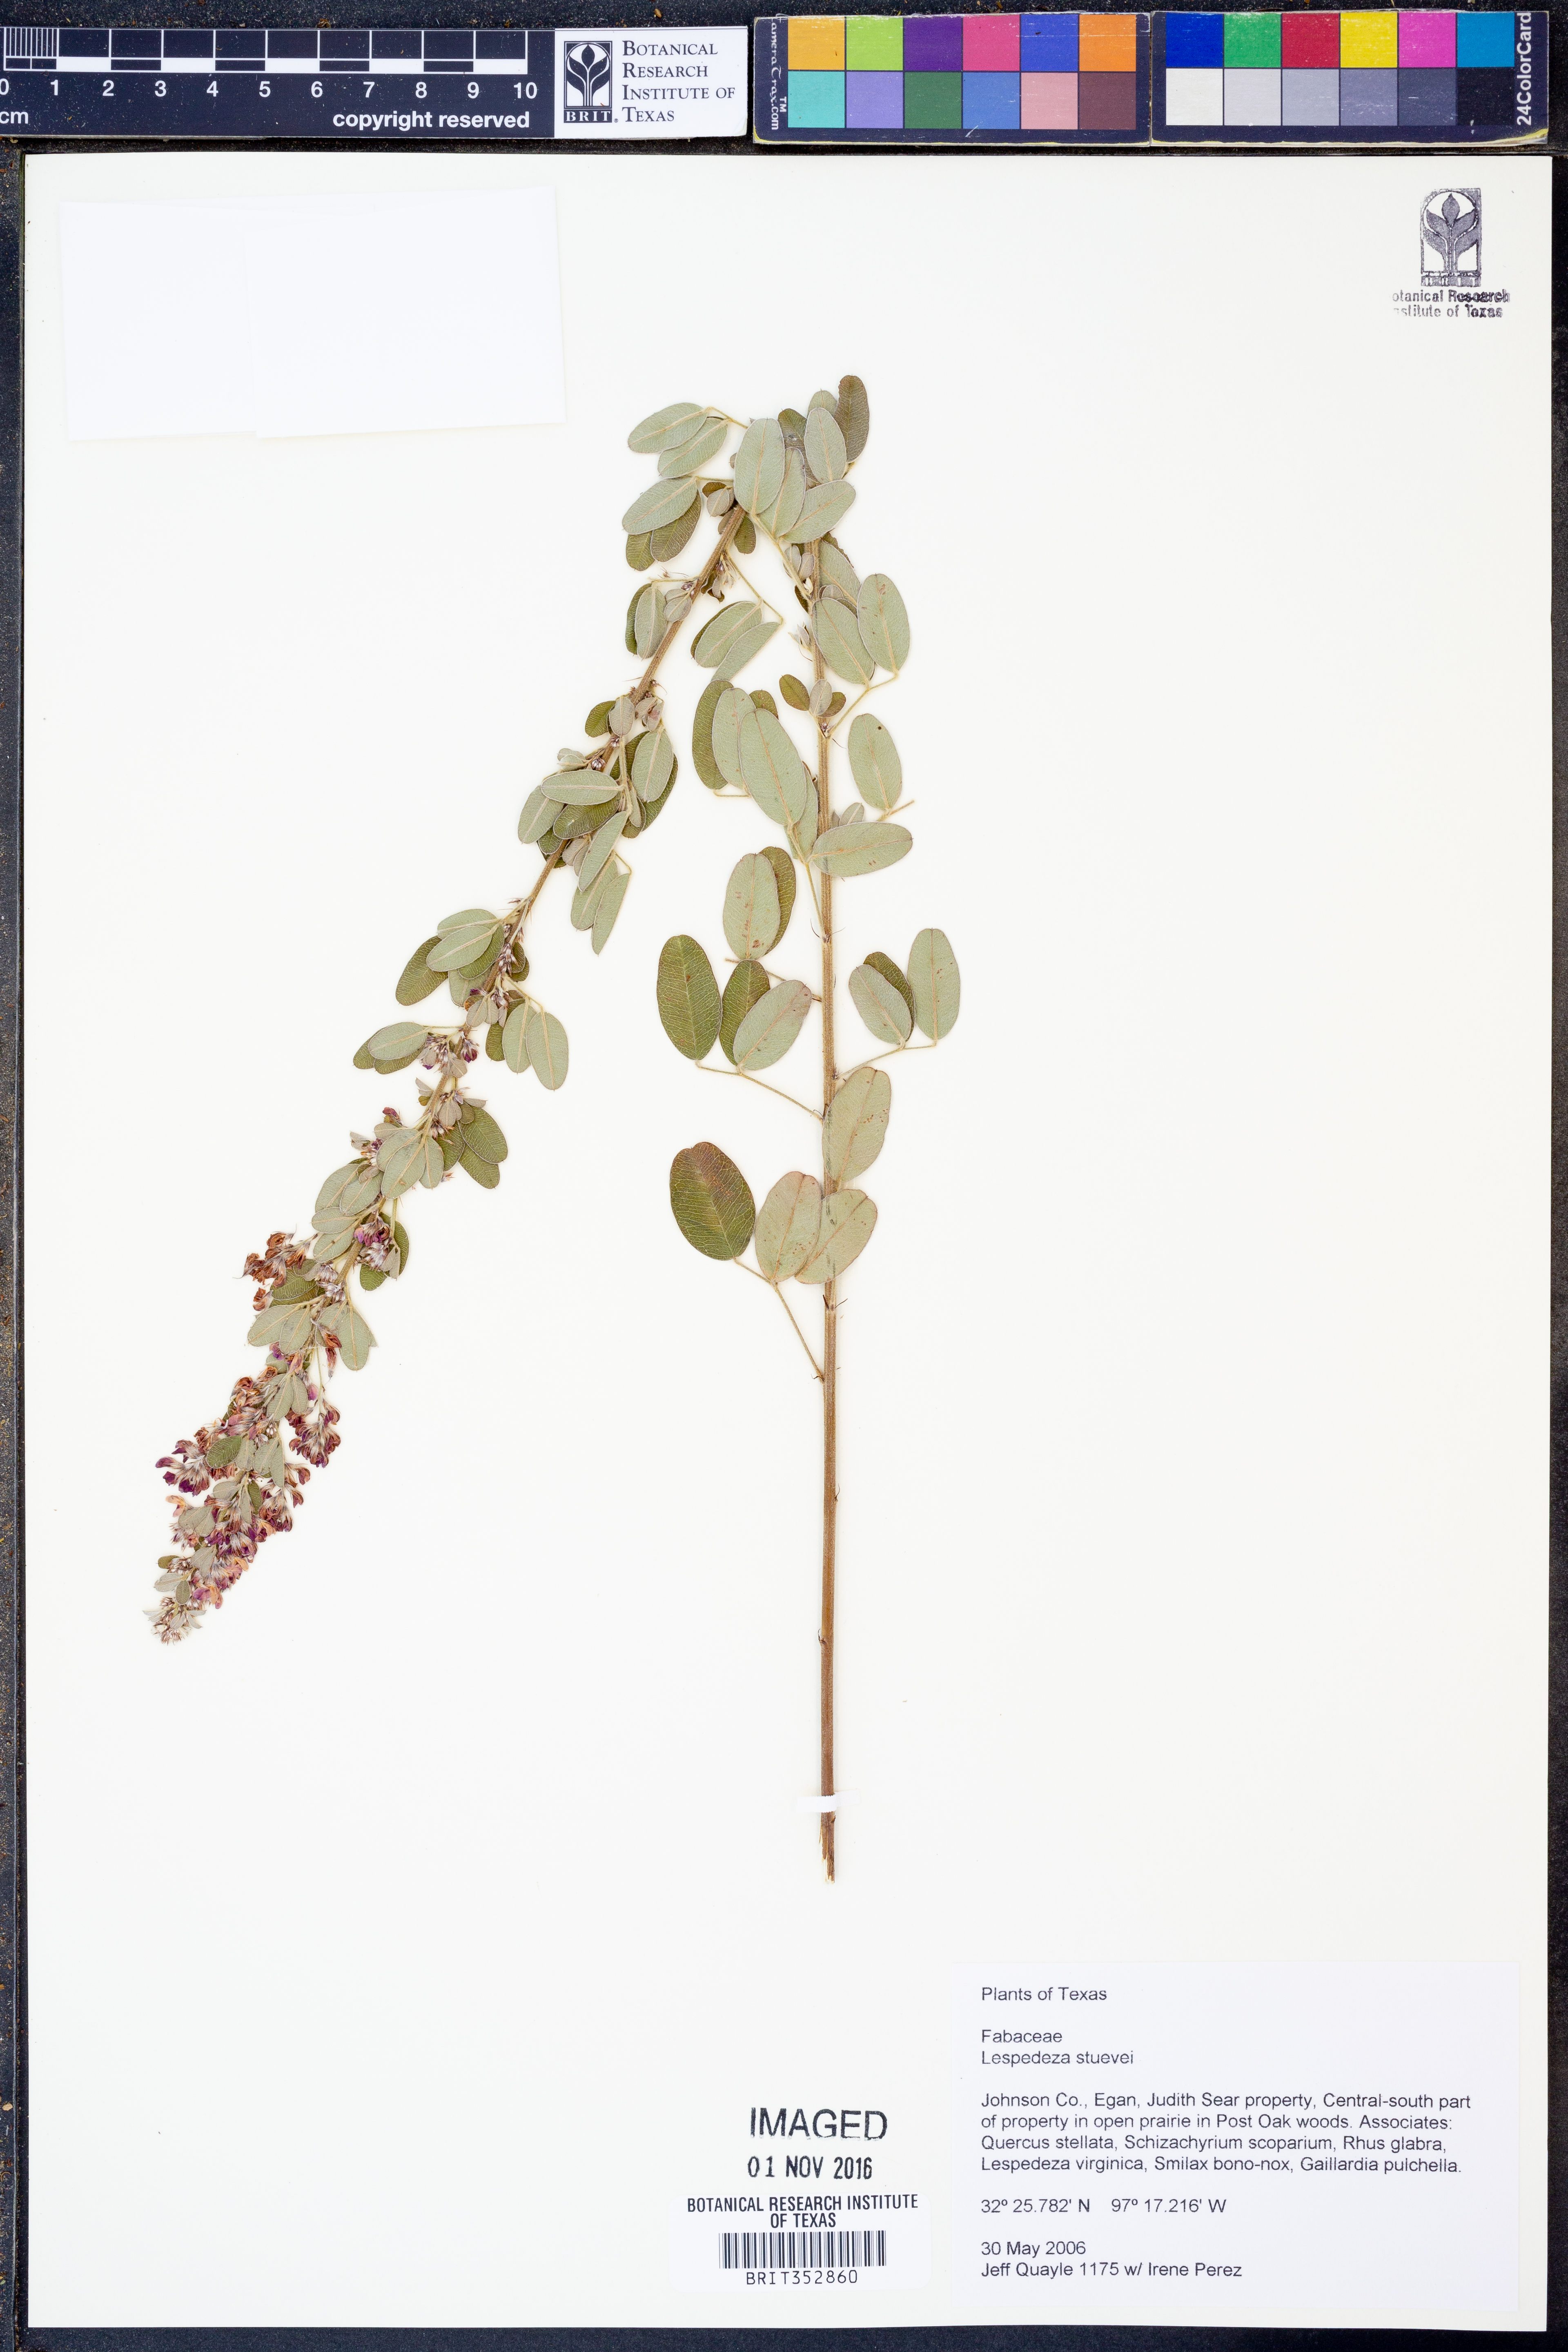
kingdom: Plantae
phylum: Tracheophyta
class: Magnoliopsida
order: Fabales
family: Fabaceae
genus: Lespedeza
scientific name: Lespedeza stuevei
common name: Tall bush-clover
